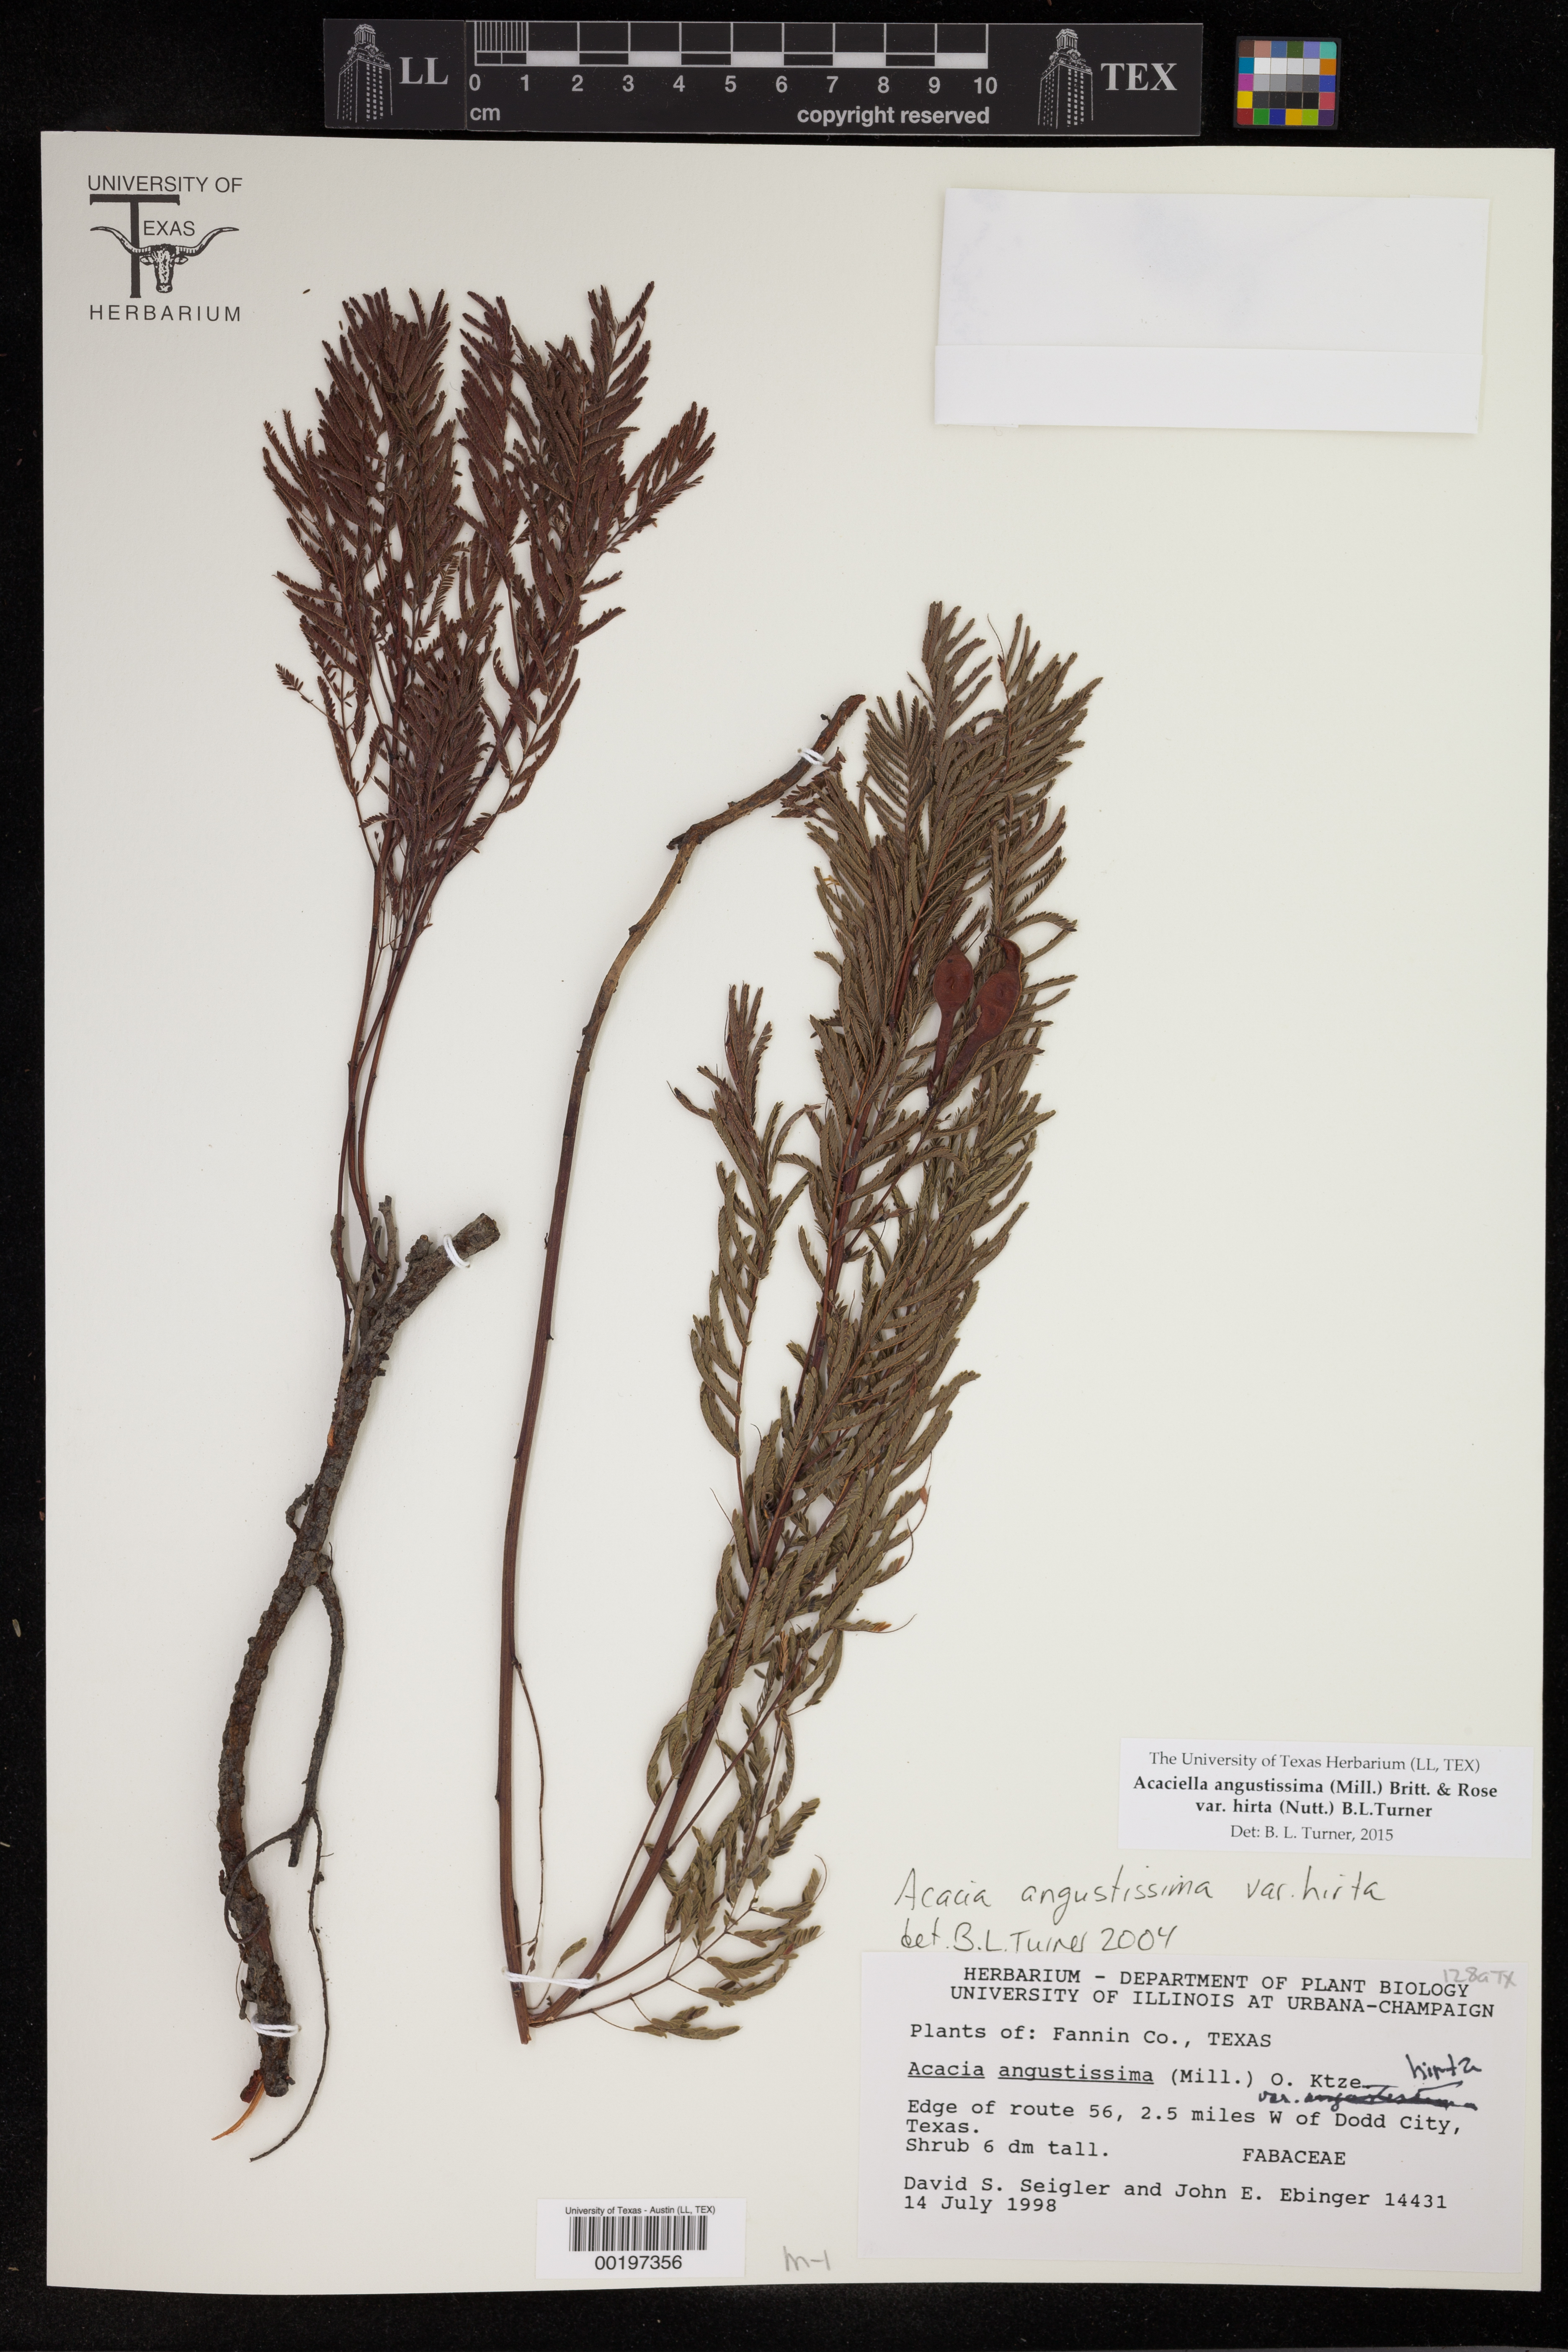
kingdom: Plantae
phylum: Tracheophyta
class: Magnoliopsida
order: Fabales
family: Fabaceae
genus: Acaciella
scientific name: Acaciella angustissima
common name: Prairie acacia
